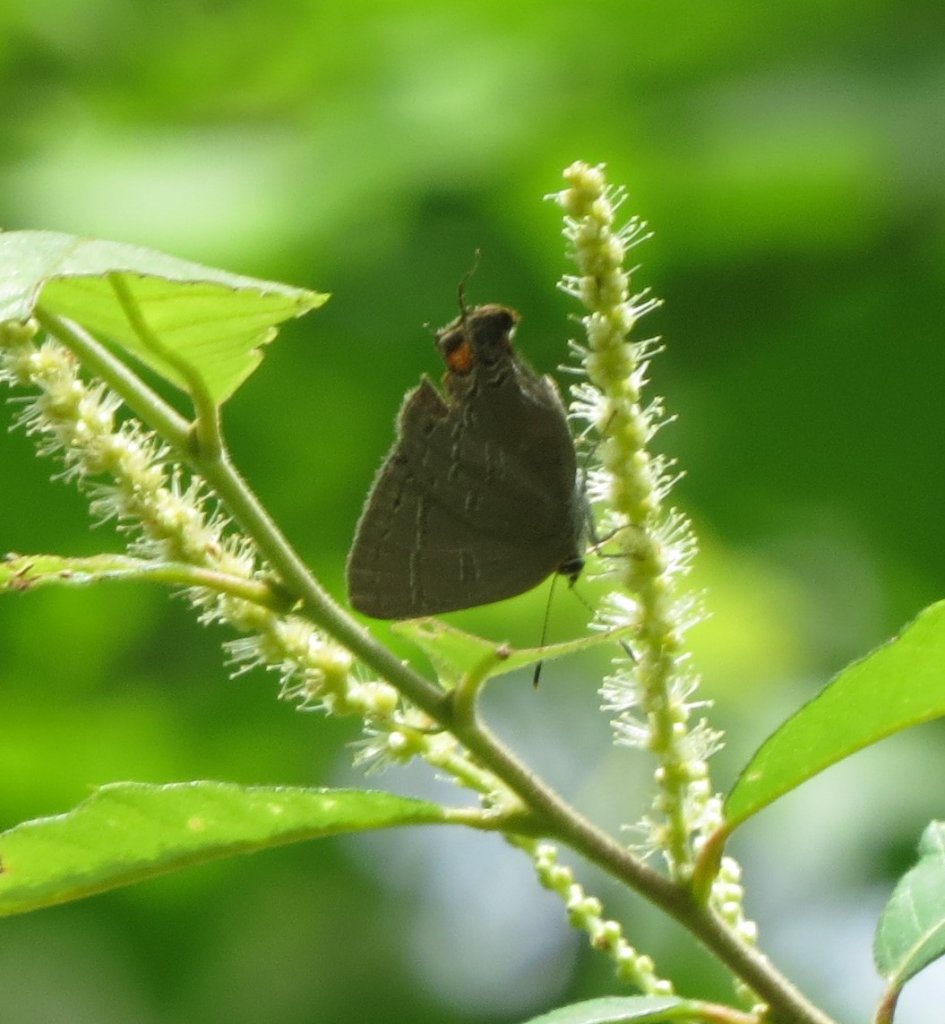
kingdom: Animalia
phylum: Arthropoda
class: Insecta
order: Lepidoptera
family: Lycaenidae
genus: Strymon
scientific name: Strymon kingi
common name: King's Hairstreak
